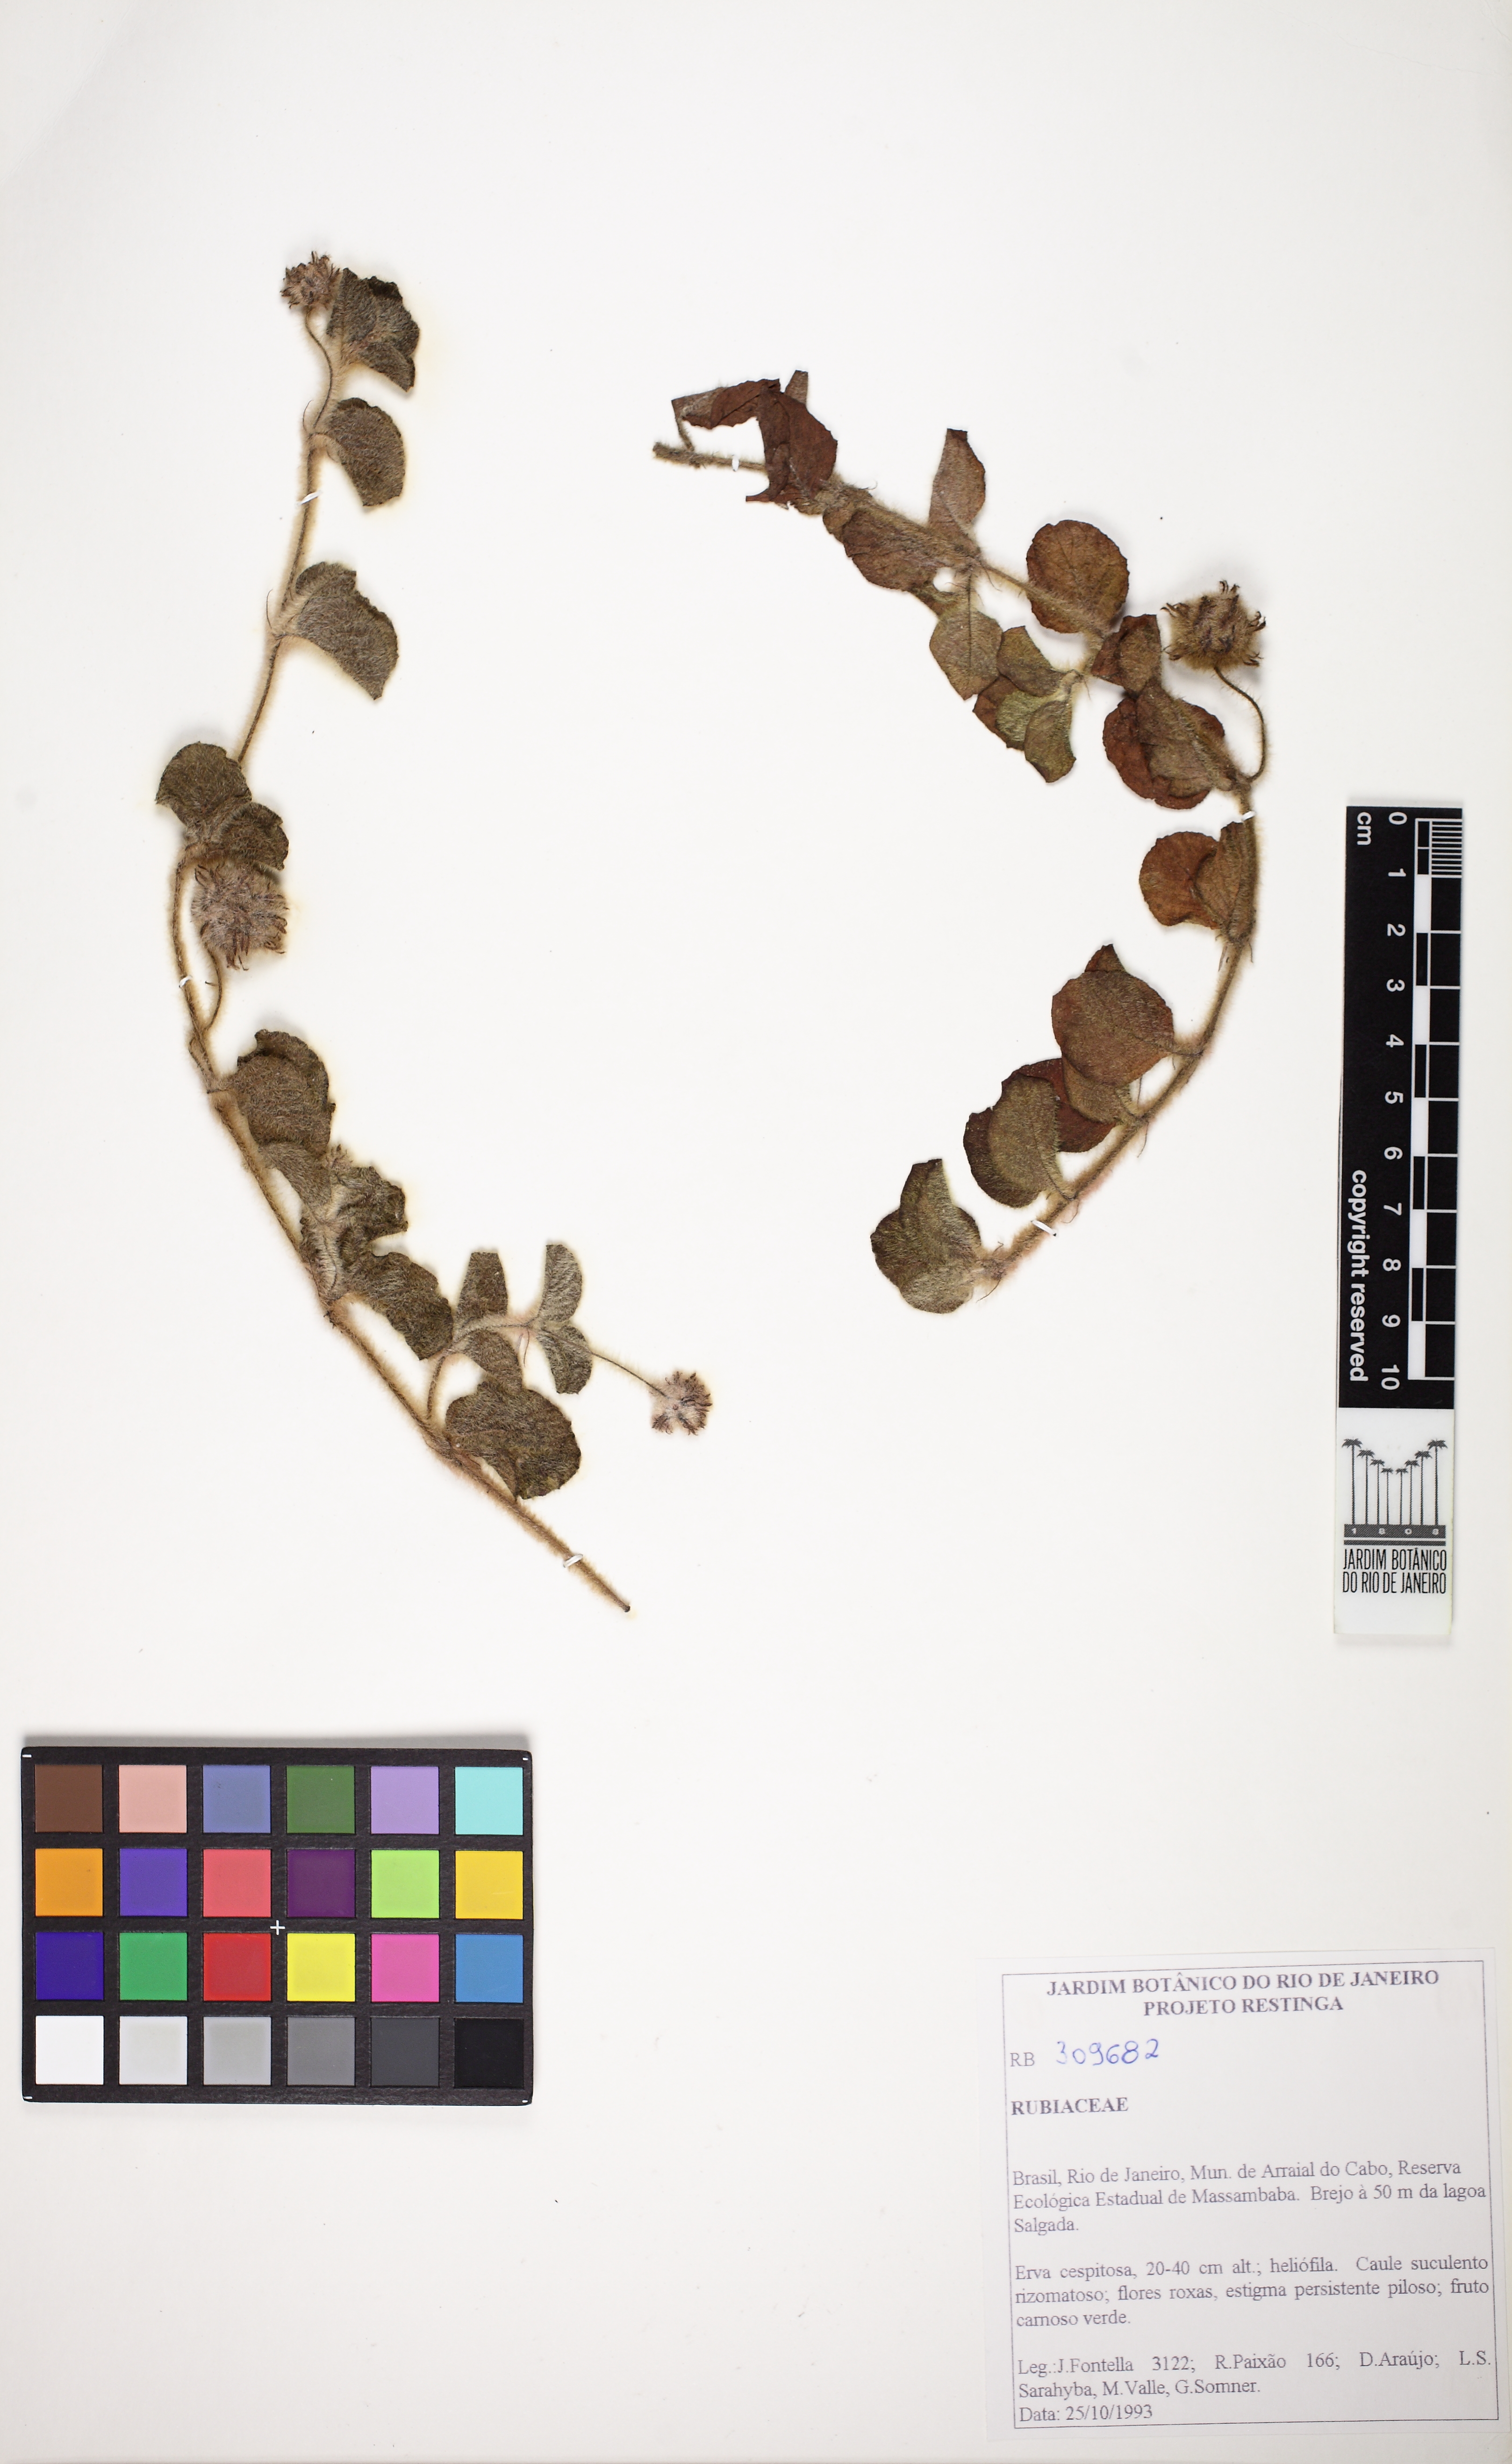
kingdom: Plantae
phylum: Tracheophyta
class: Magnoliopsida
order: Gentianales
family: Rubiaceae
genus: Coccocypselum
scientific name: Coccocypselum capitatum
